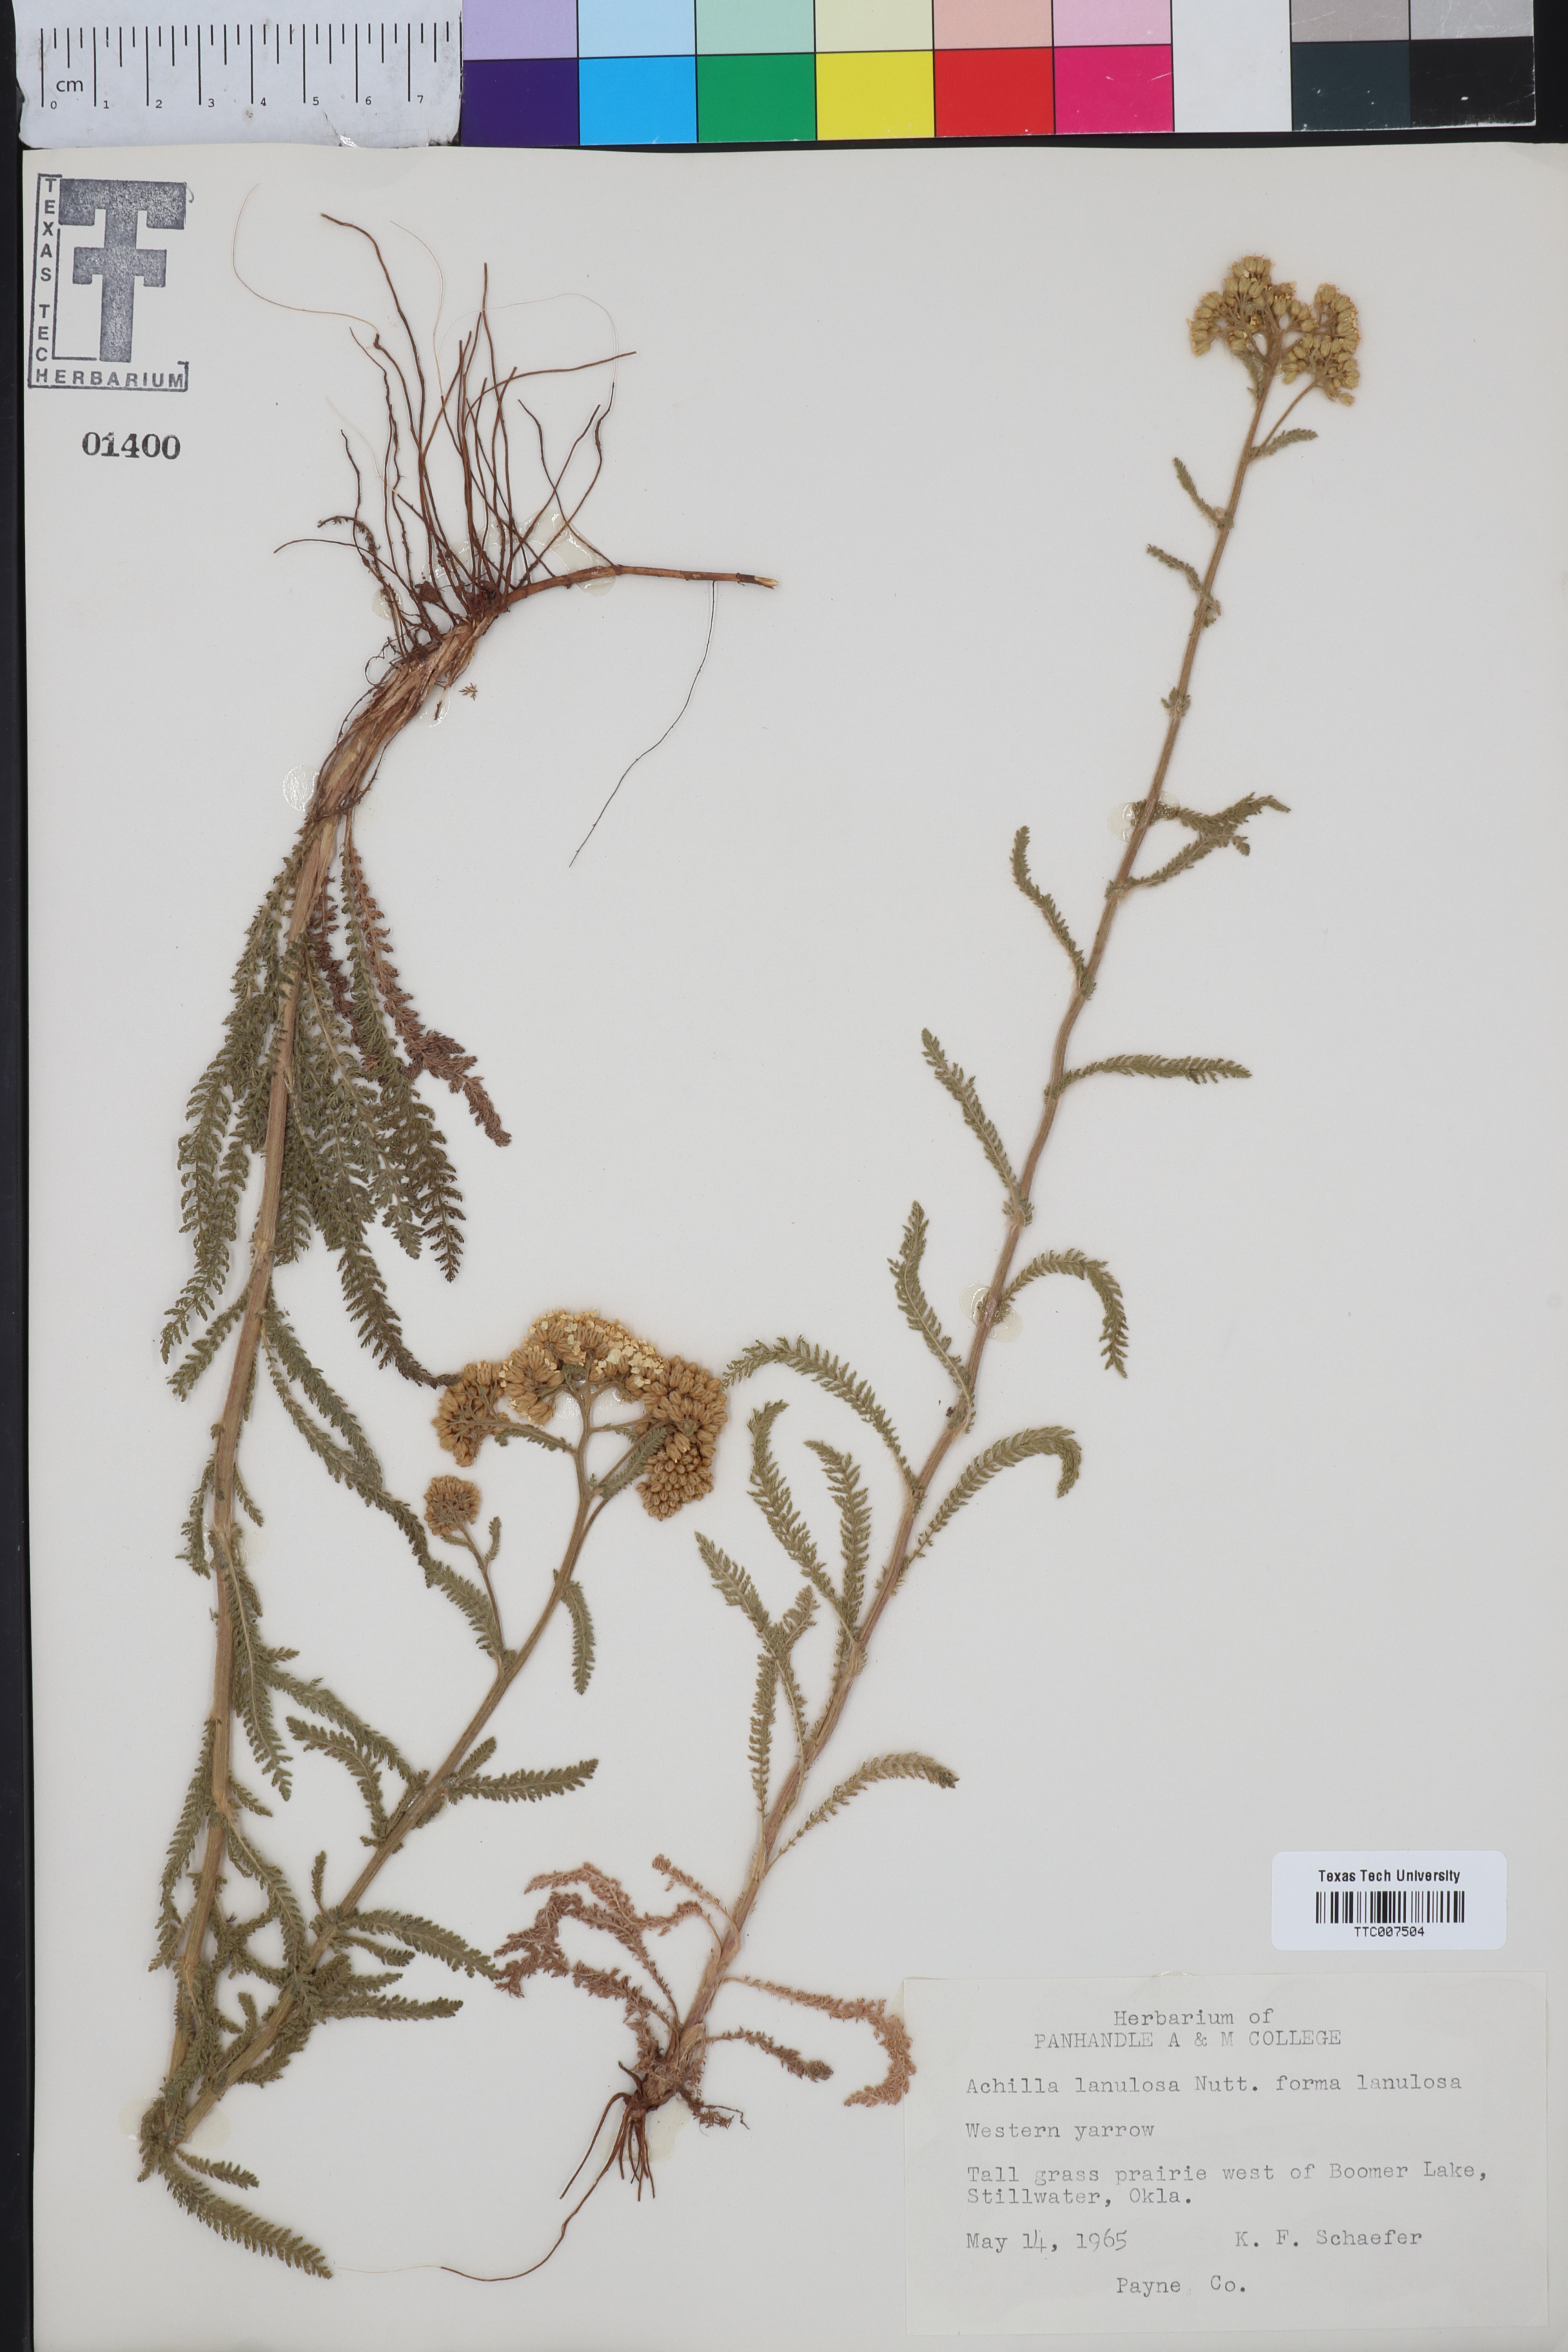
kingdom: Plantae
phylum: Tracheophyta
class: Magnoliopsida
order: Asterales
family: Asteraceae
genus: Achillea
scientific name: Achillea millefolium
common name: Yarrow
